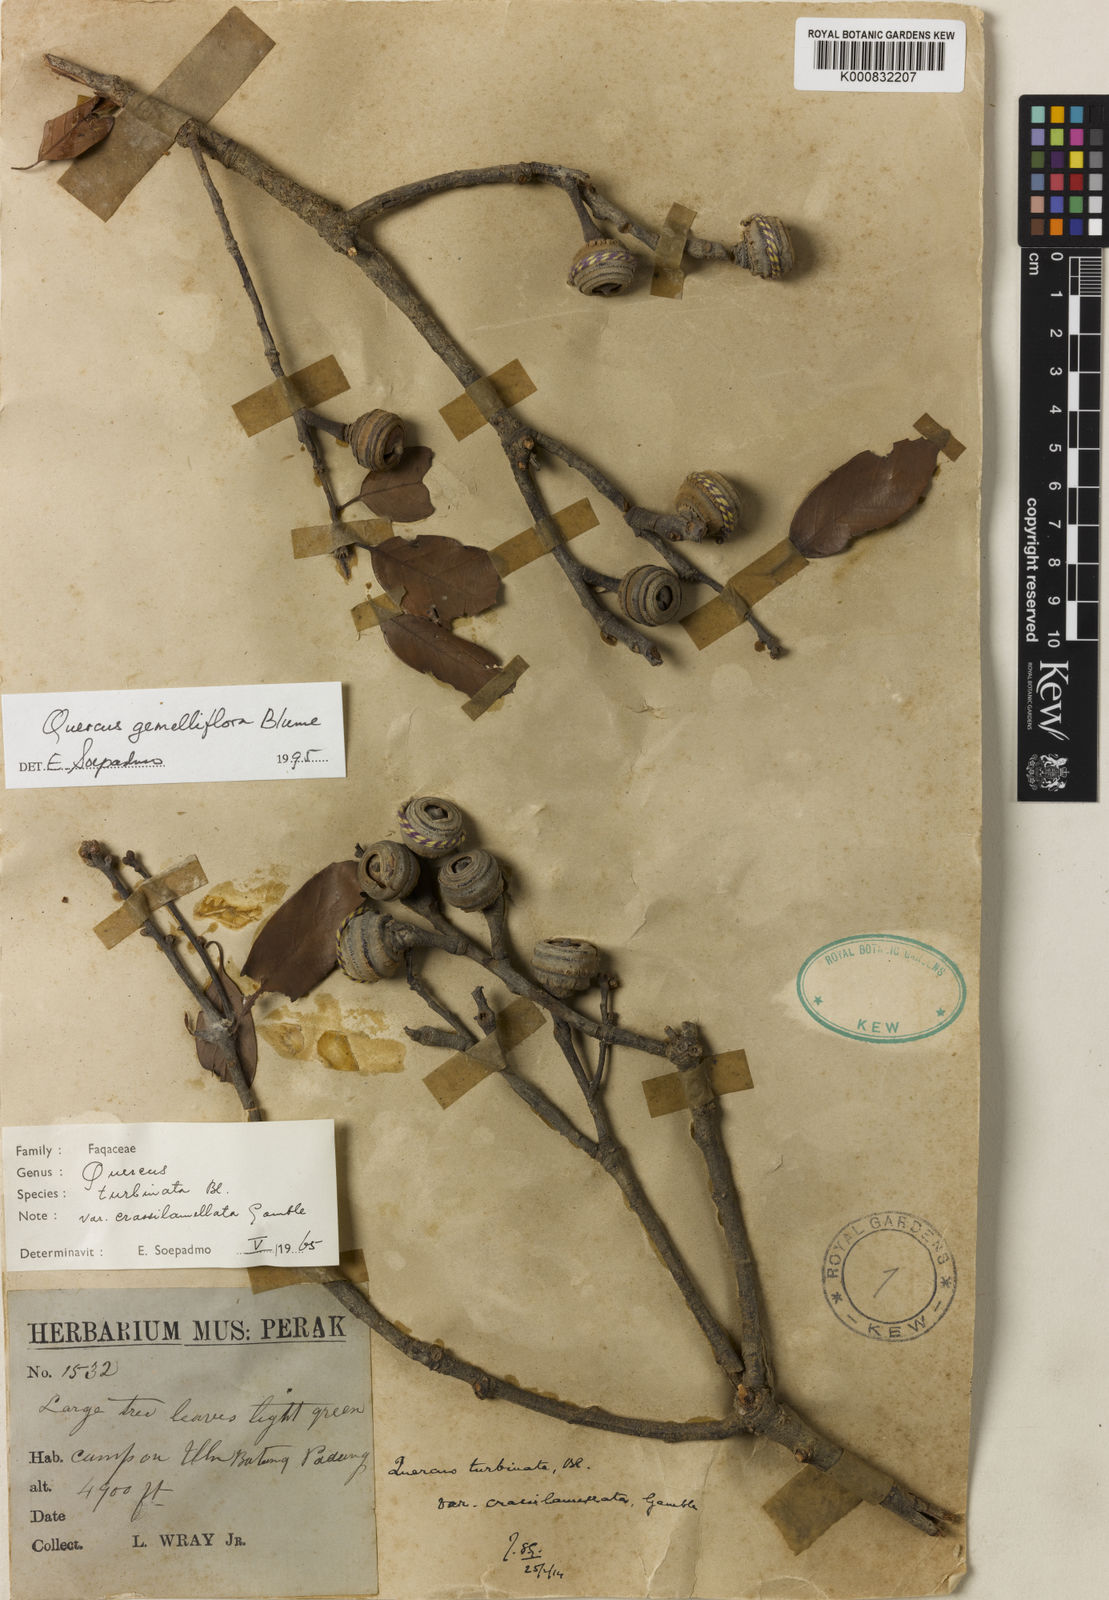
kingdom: Plantae
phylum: Tracheophyta
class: Magnoliopsida
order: Fagales
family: Fagaceae
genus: Quercus
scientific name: Quercus gemelliflora
